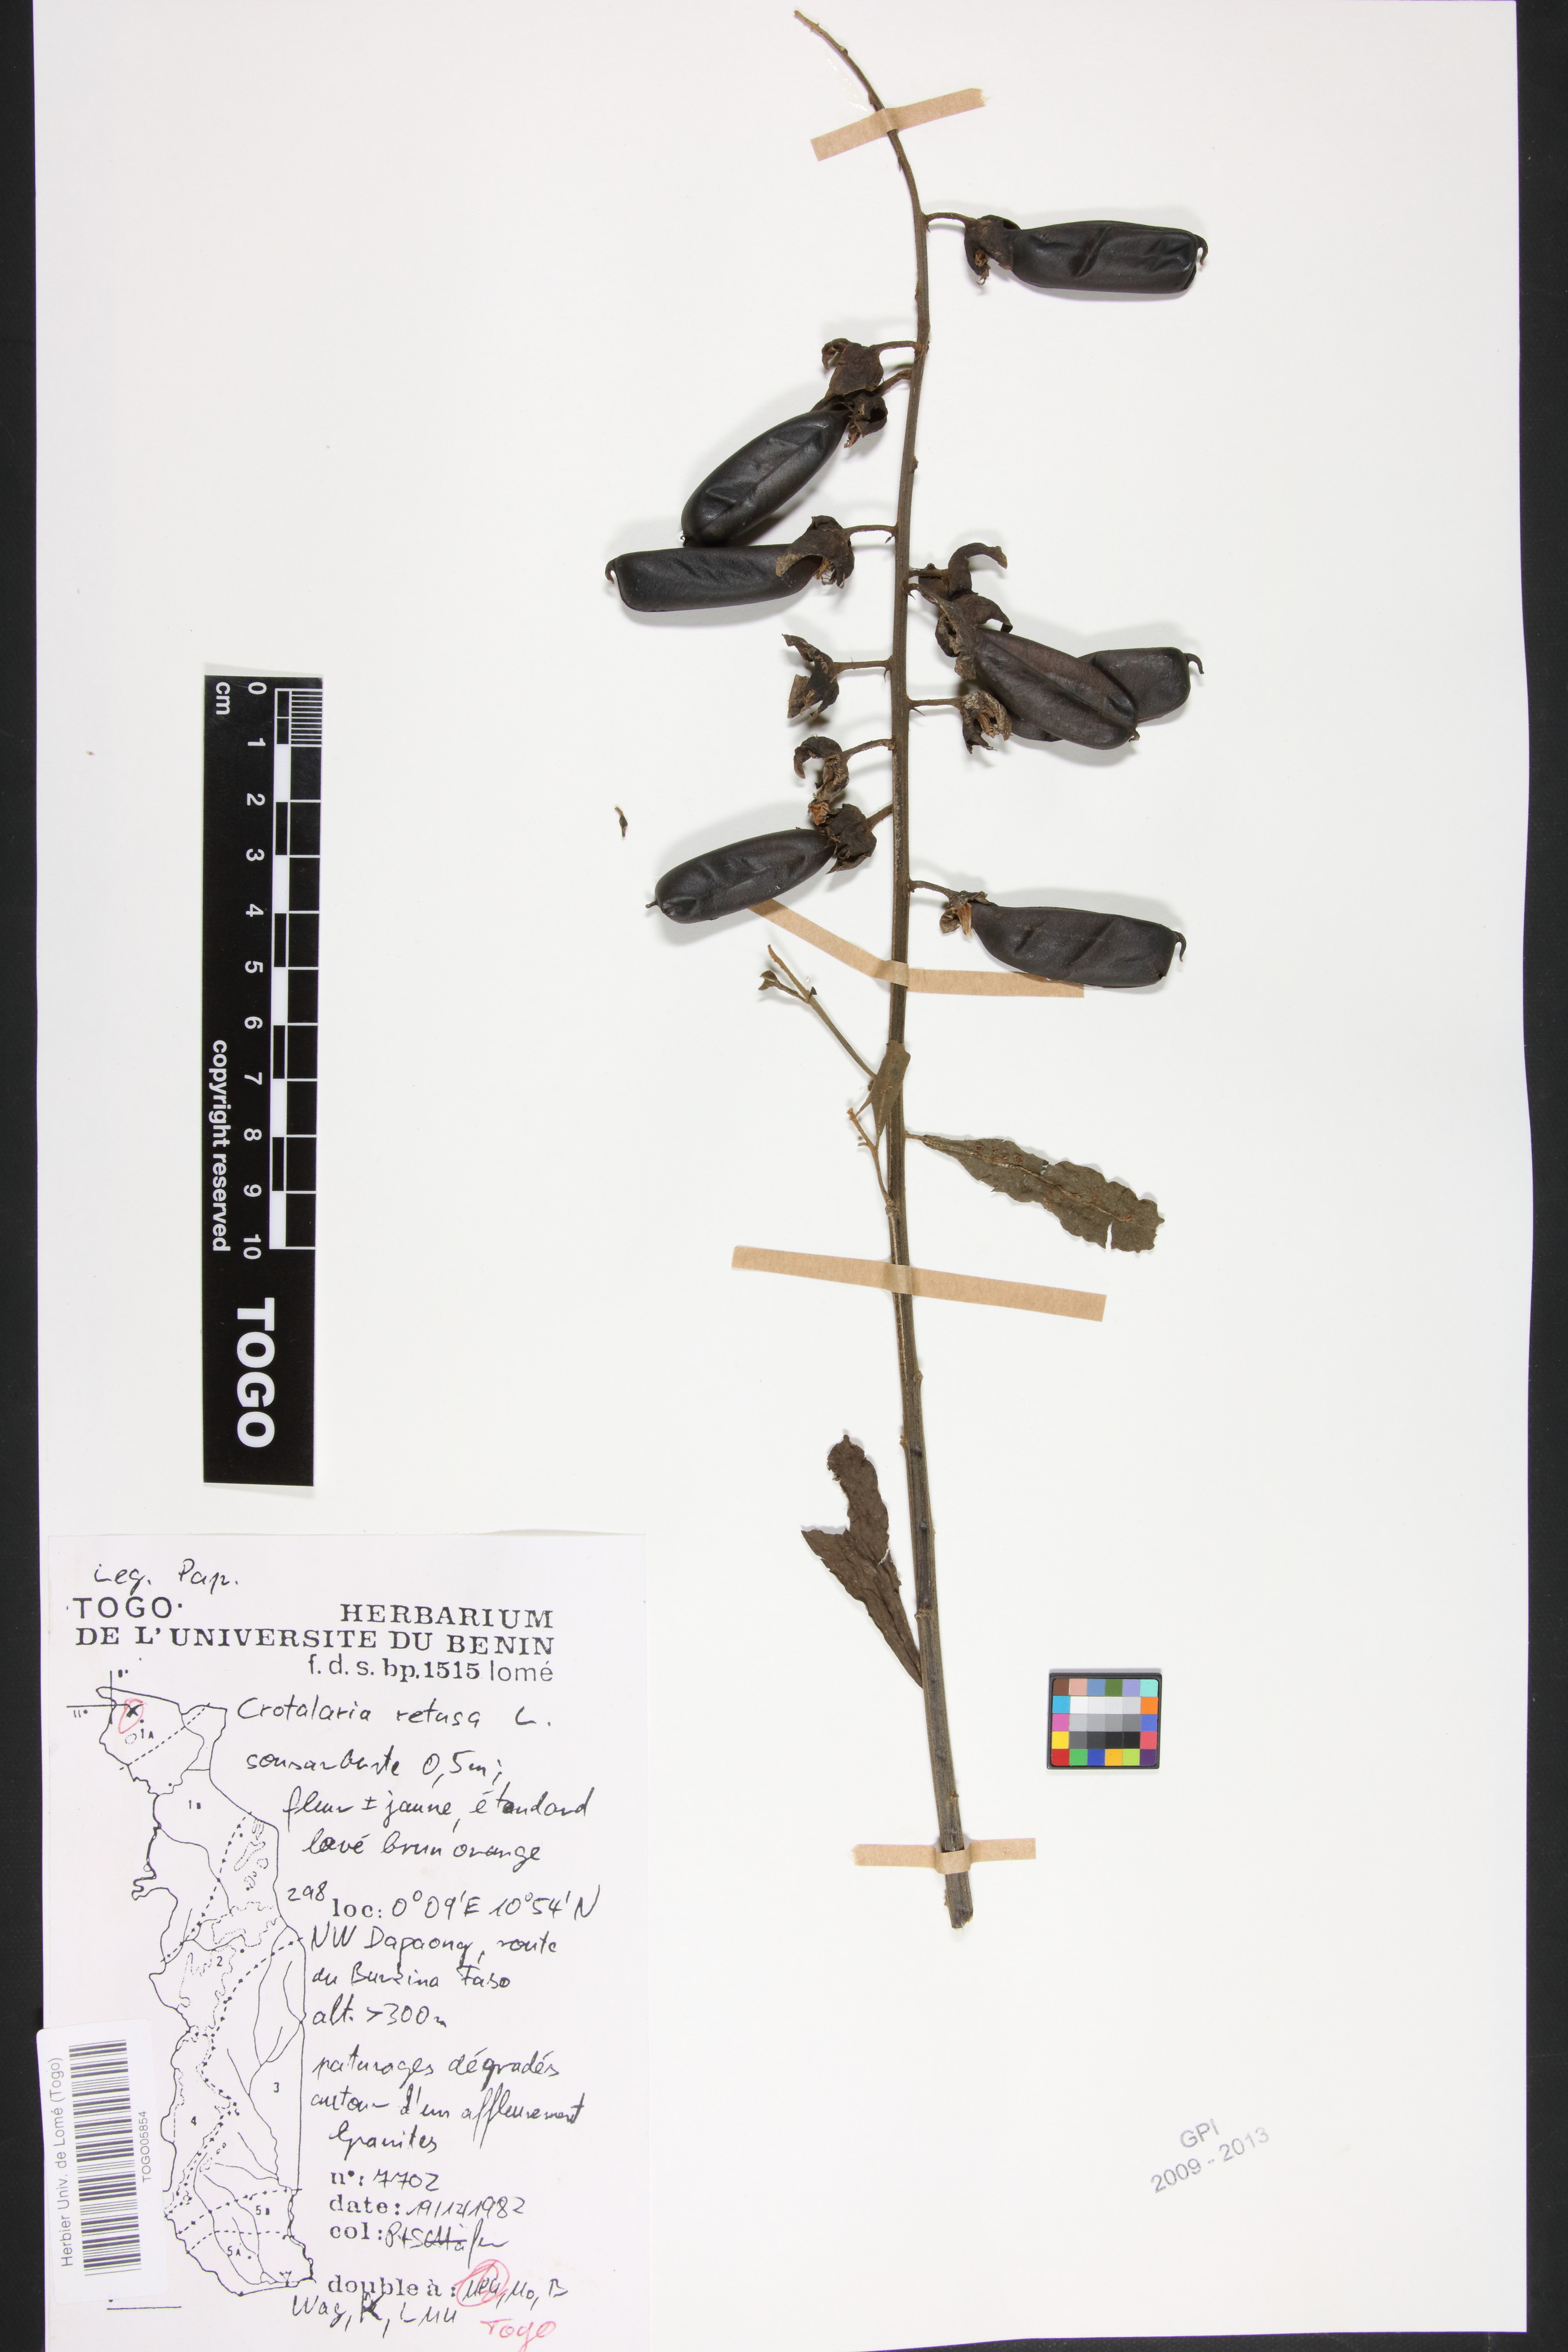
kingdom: Plantae
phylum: Tracheophyta
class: Magnoliopsida
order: Fabales
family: Fabaceae
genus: Crotalaria
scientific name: Crotalaria retusa
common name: Rattleweed
